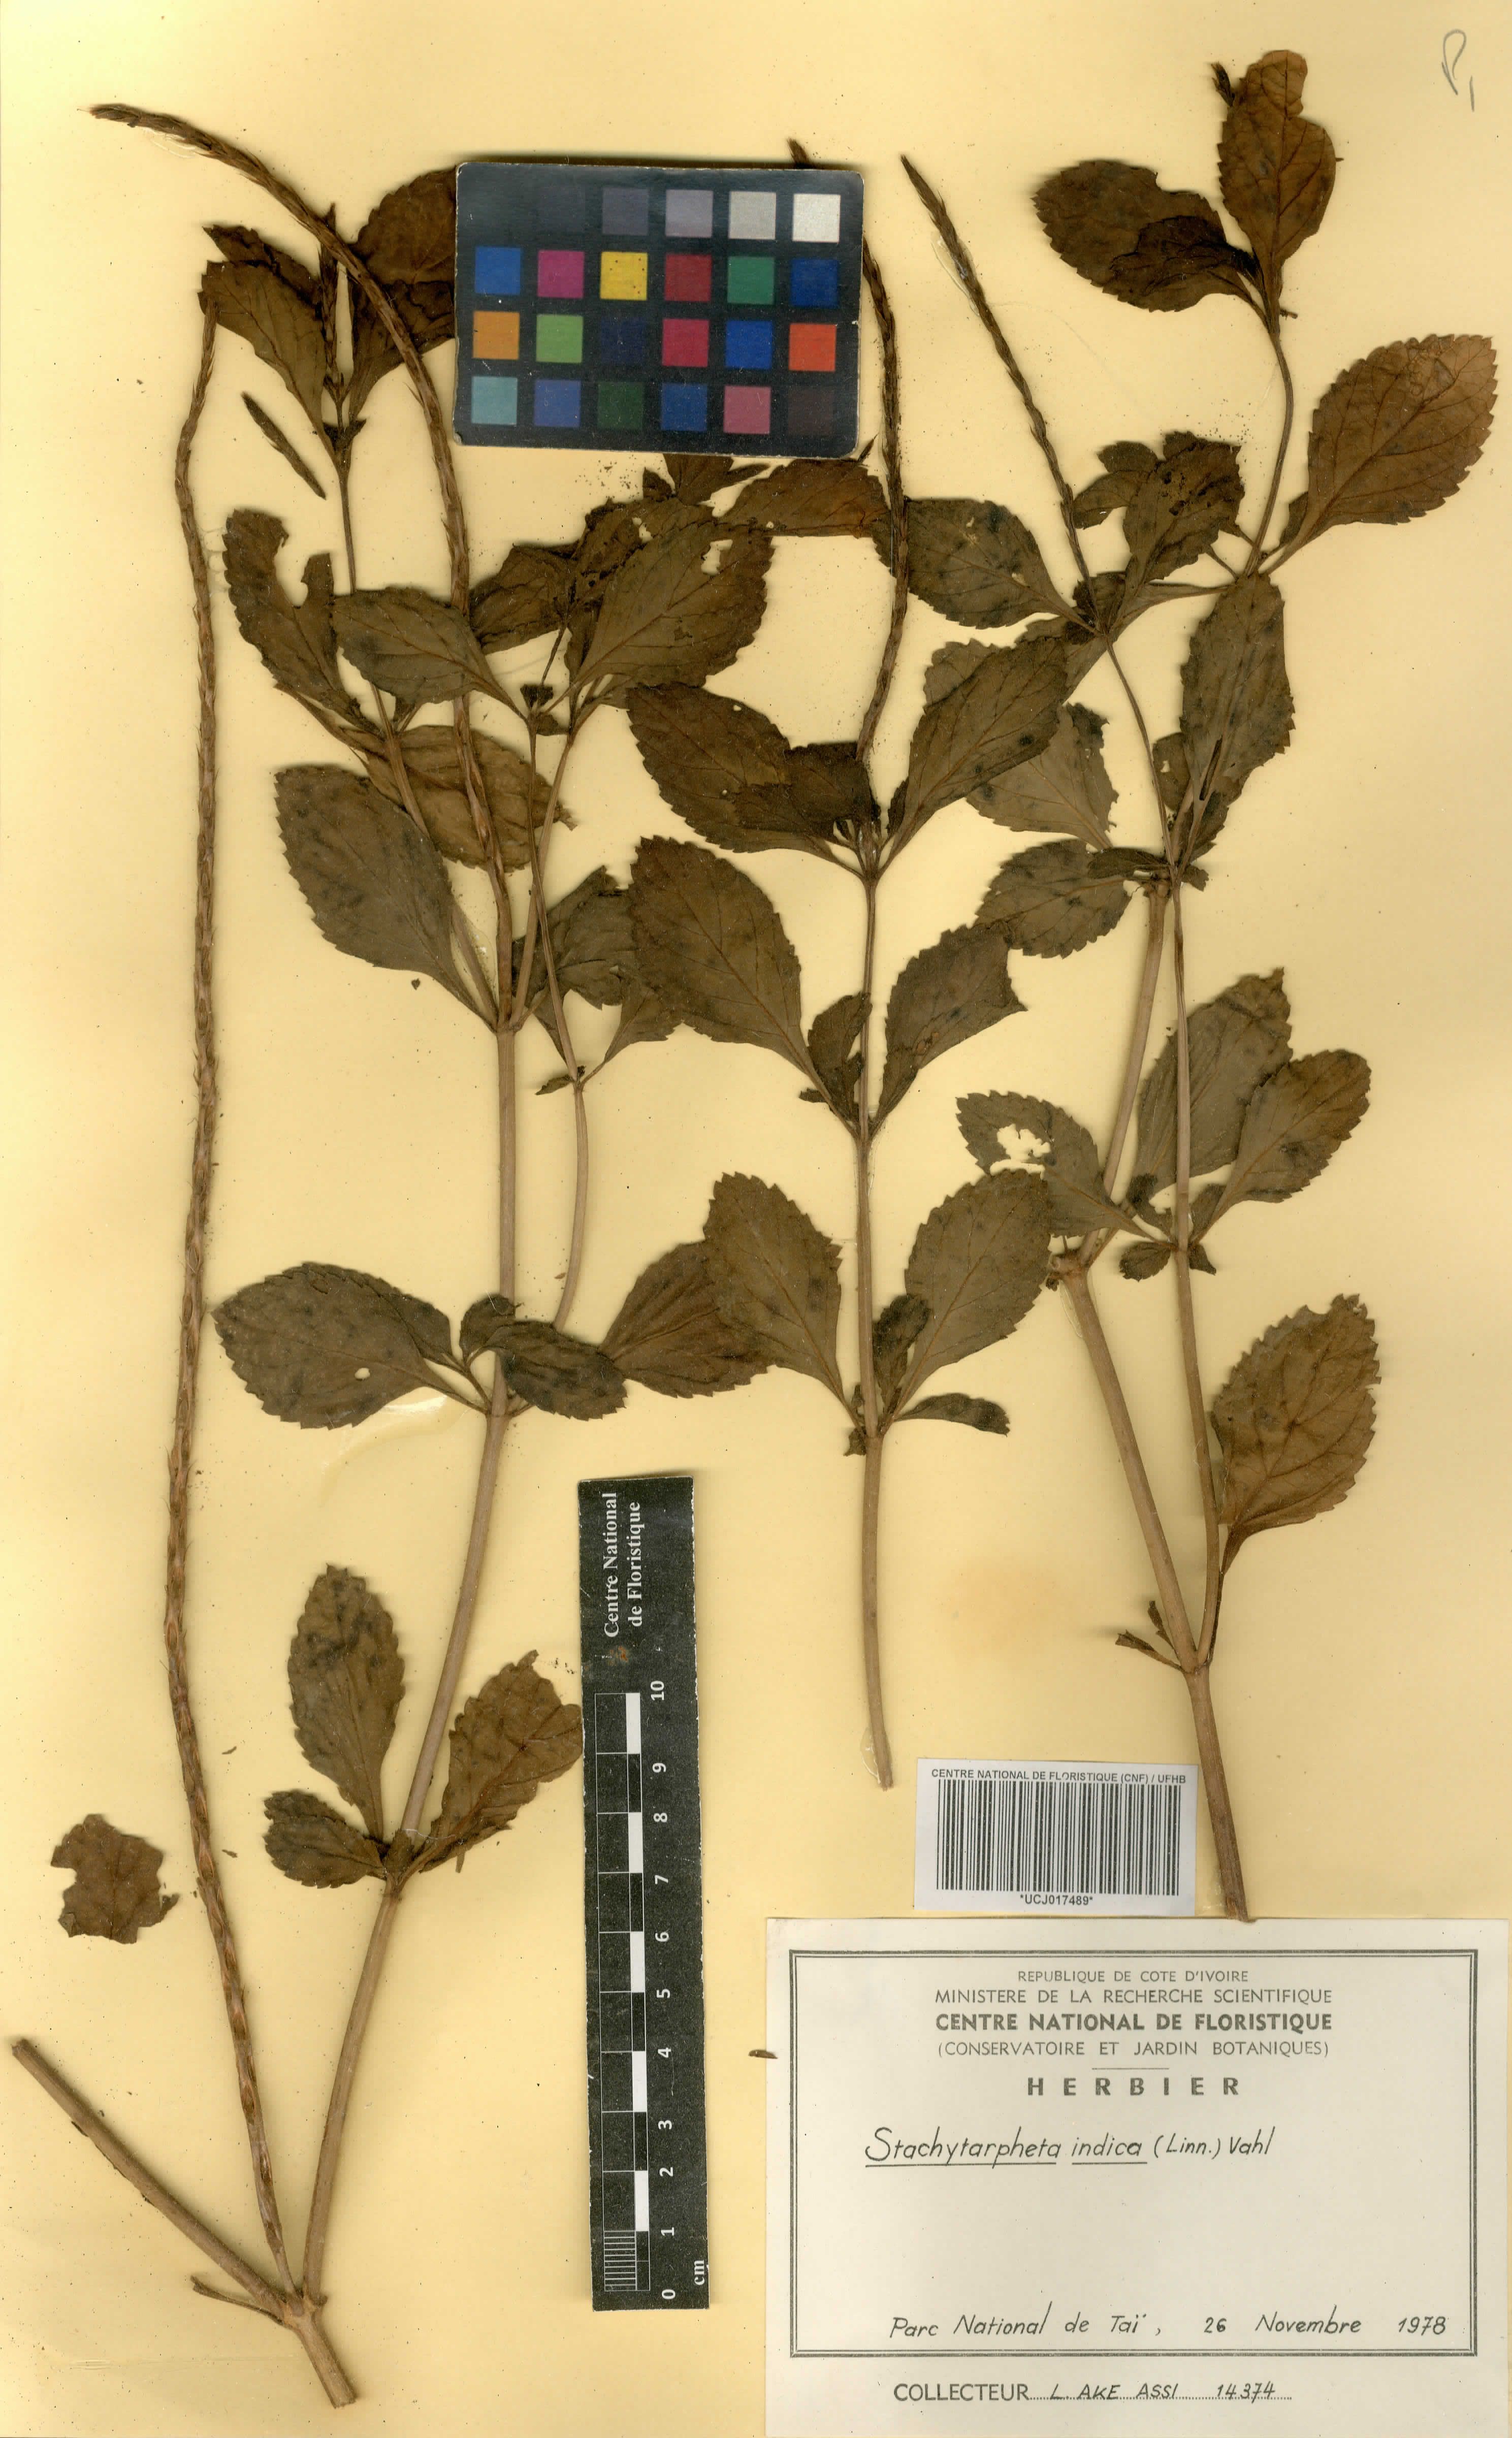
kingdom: Plantae
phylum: Tracheophyta
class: Magnoliopsida
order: Lamiales
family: Verbenaceae
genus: Stachytarpheta
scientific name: Stachytarpheta indica
